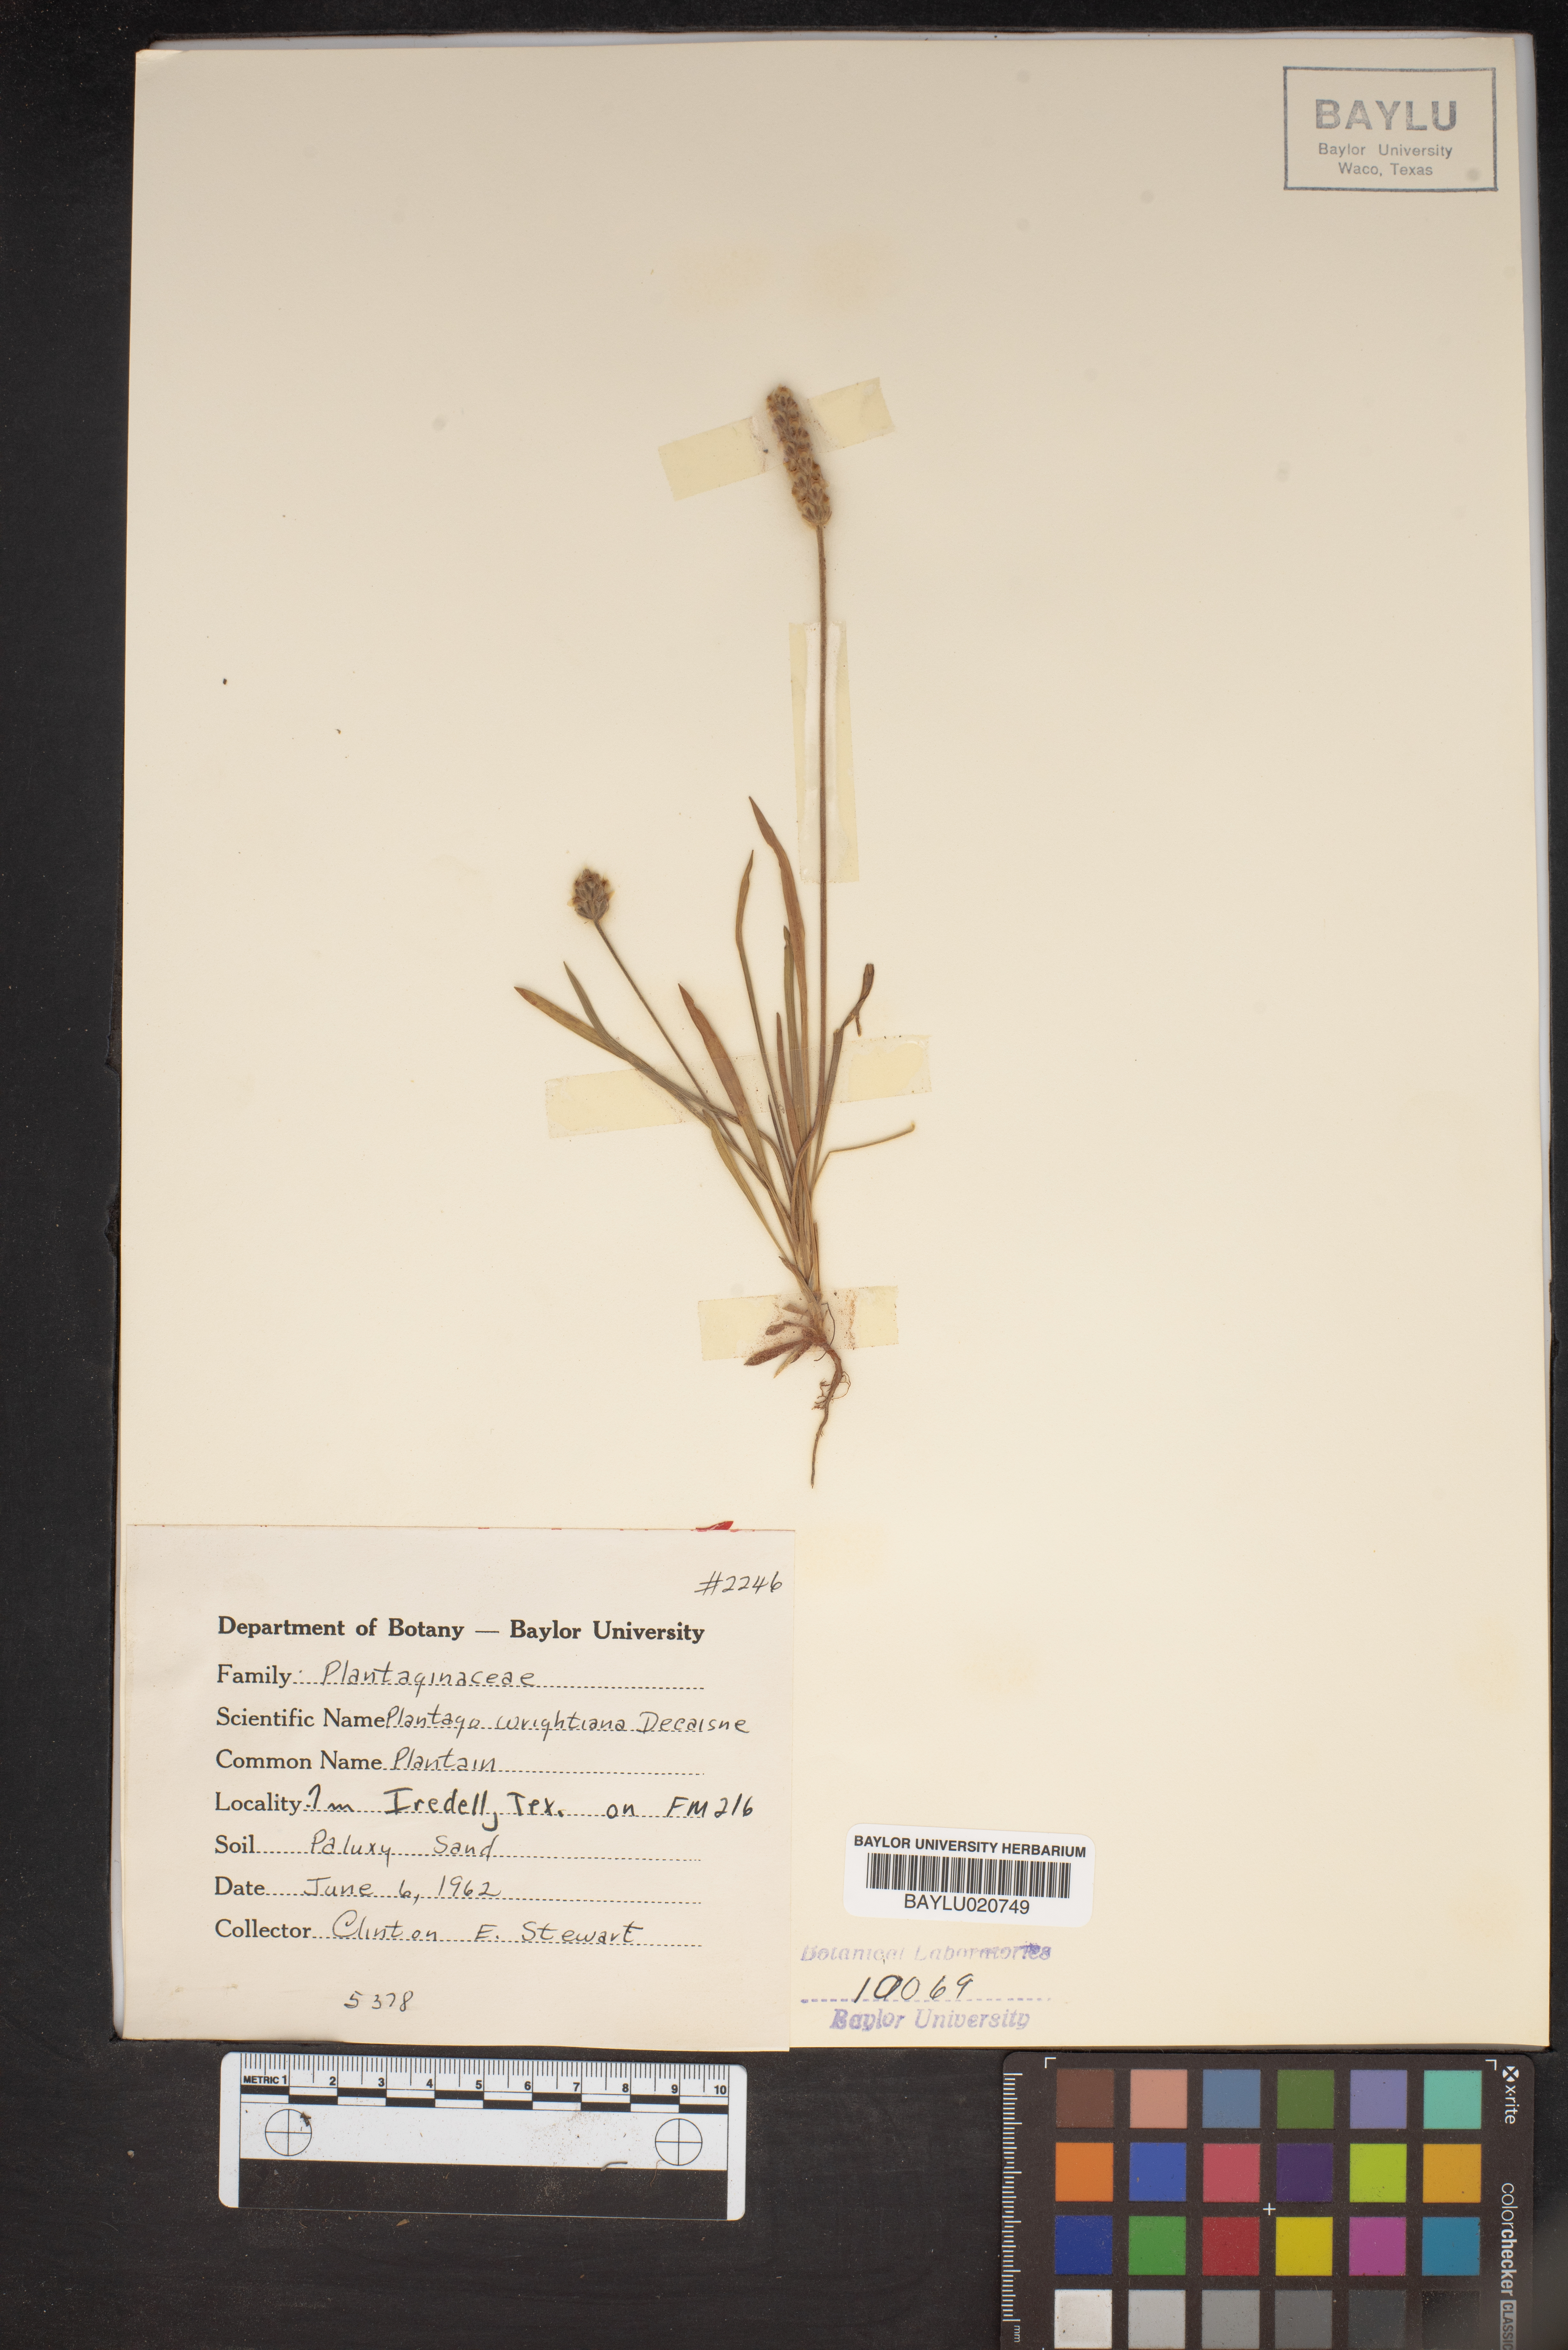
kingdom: Plantae
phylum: Tracheophyta
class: Magnoliopsida
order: Lamiales
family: Plantaginaceae
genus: Plantago
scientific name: Plantago wrightiana
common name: Wright's plantain
